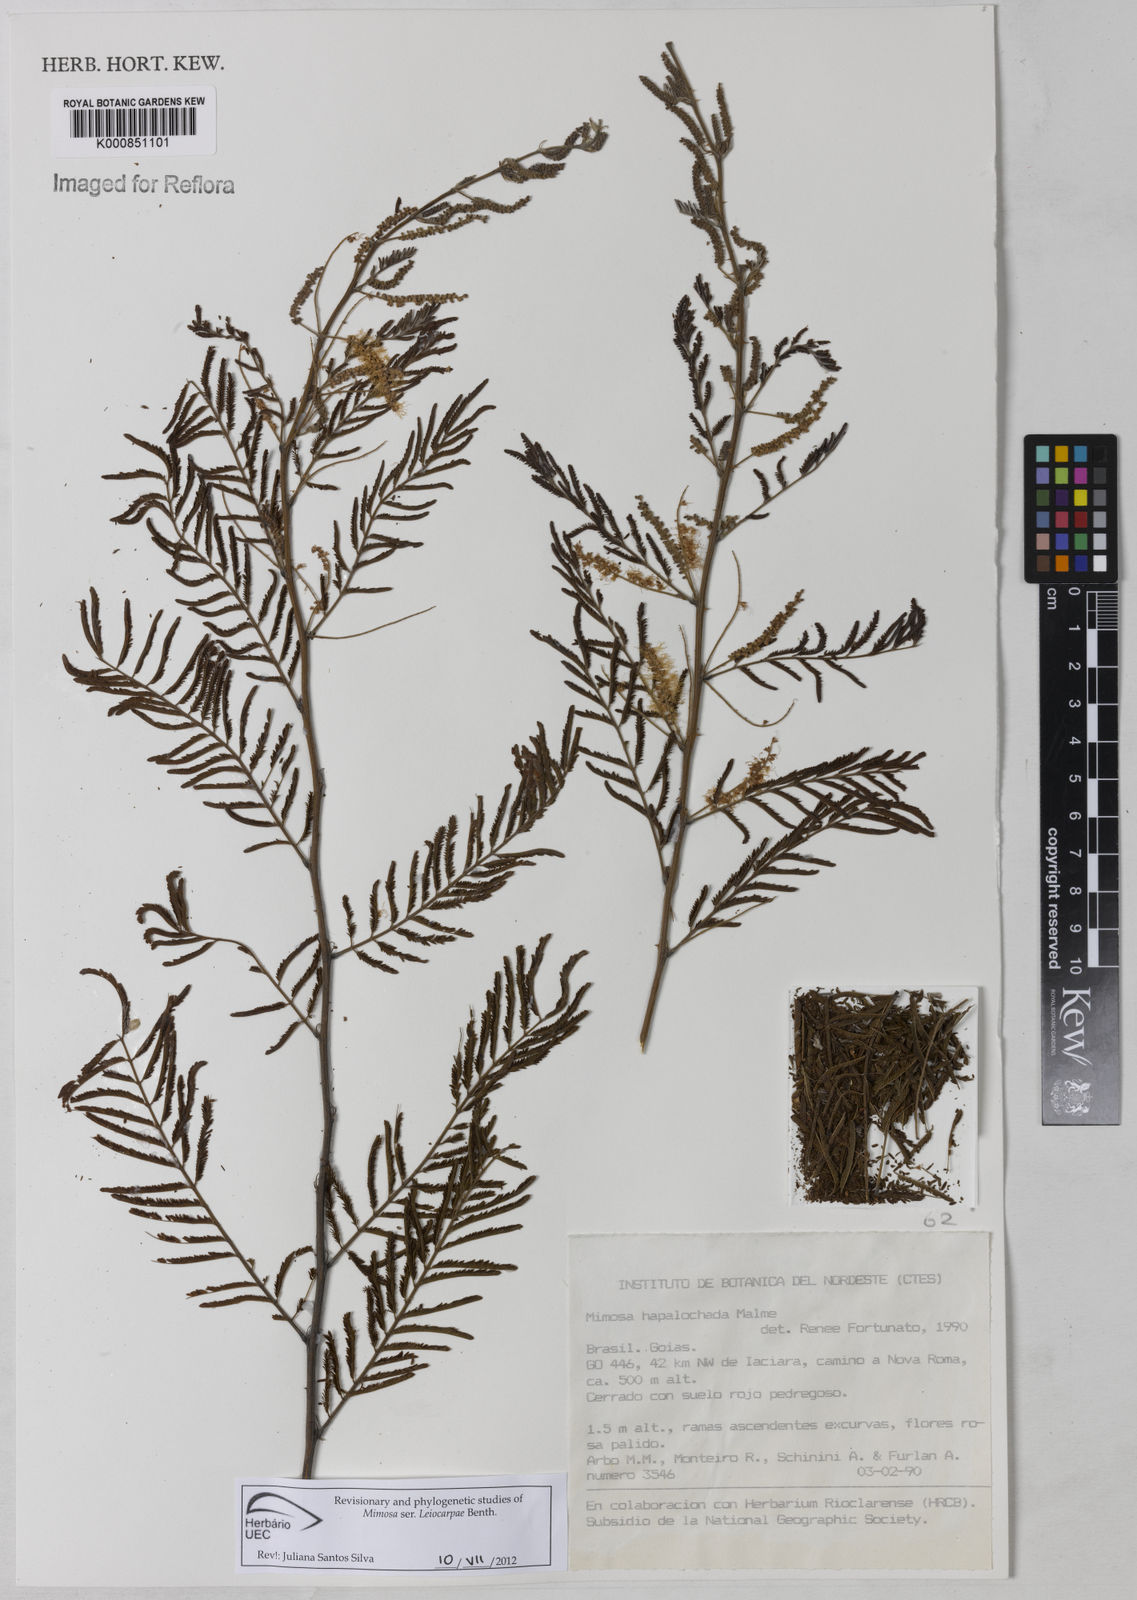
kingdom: Plantae
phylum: Tracheophyta
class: Magnoliopsida
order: Fabales
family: Fabaceae
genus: Mimosa
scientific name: Mimosa hapaloclada
